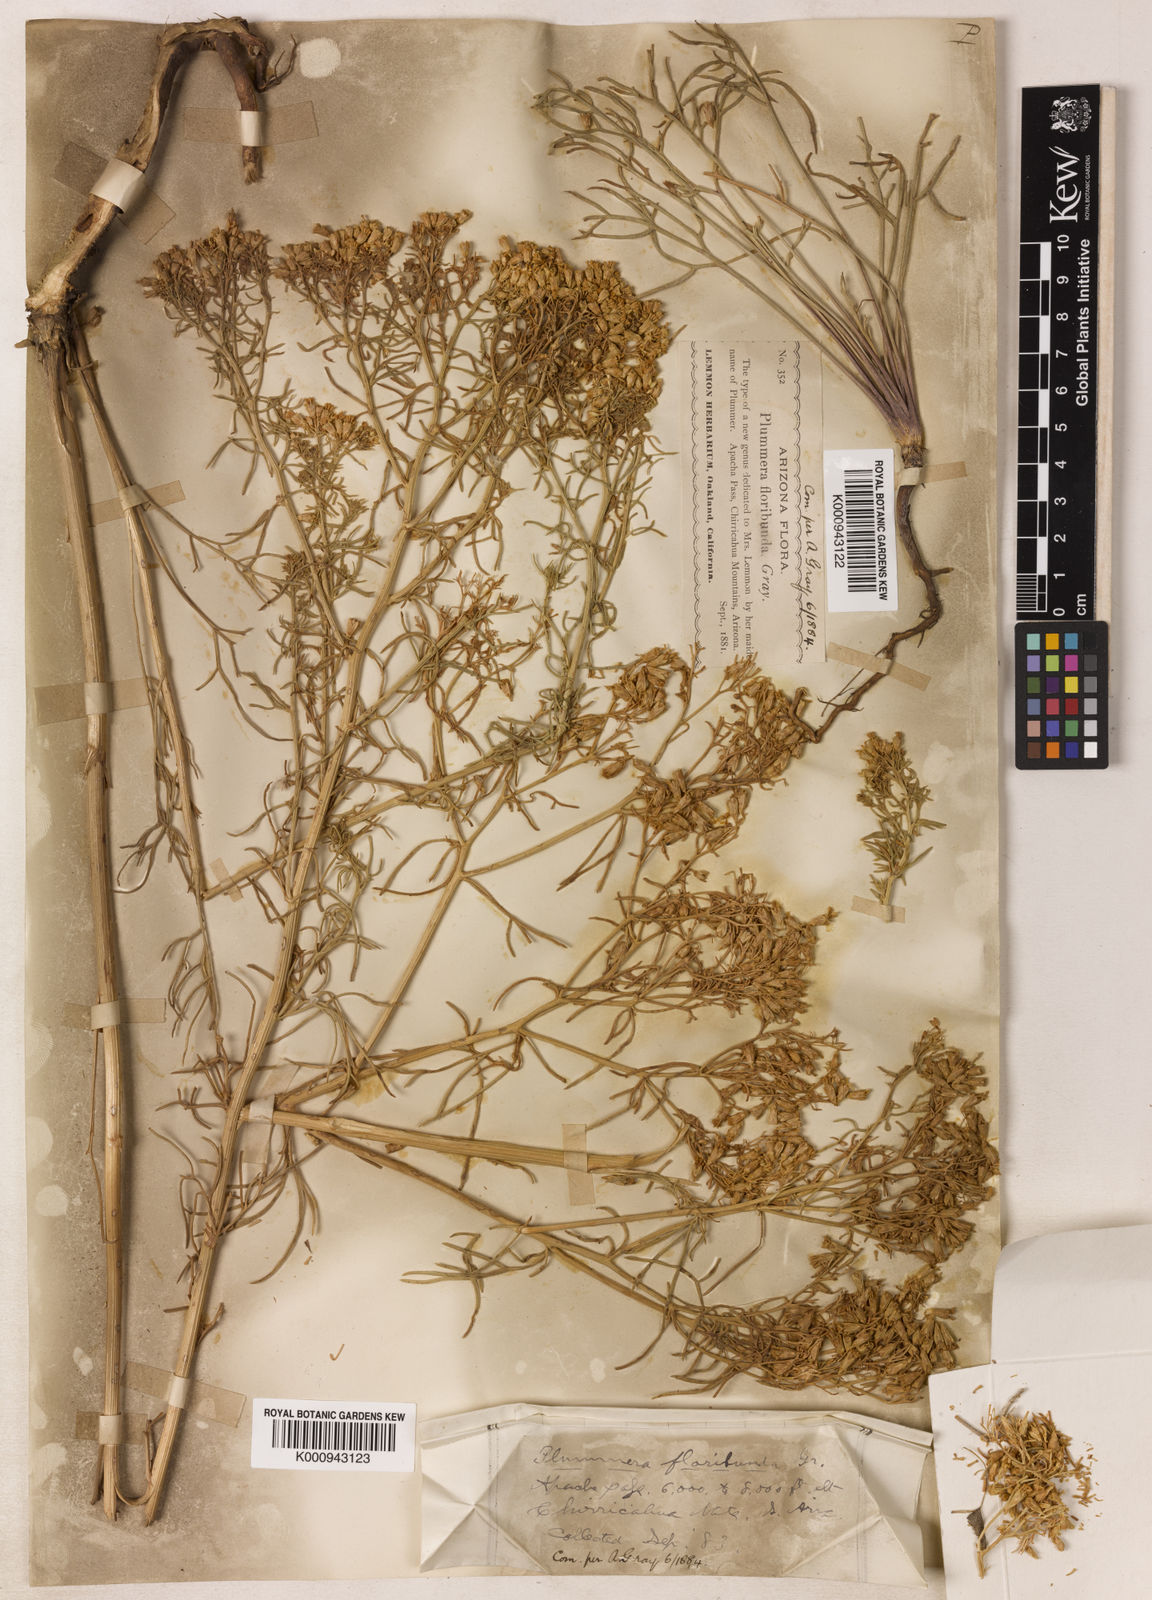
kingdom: Plantae
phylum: Tracheophyta
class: Magnoliopsida
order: Asterales
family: Asteraceae
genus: Hymenoxys
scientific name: Hymenoxys odorata
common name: Bitter rubberweed
